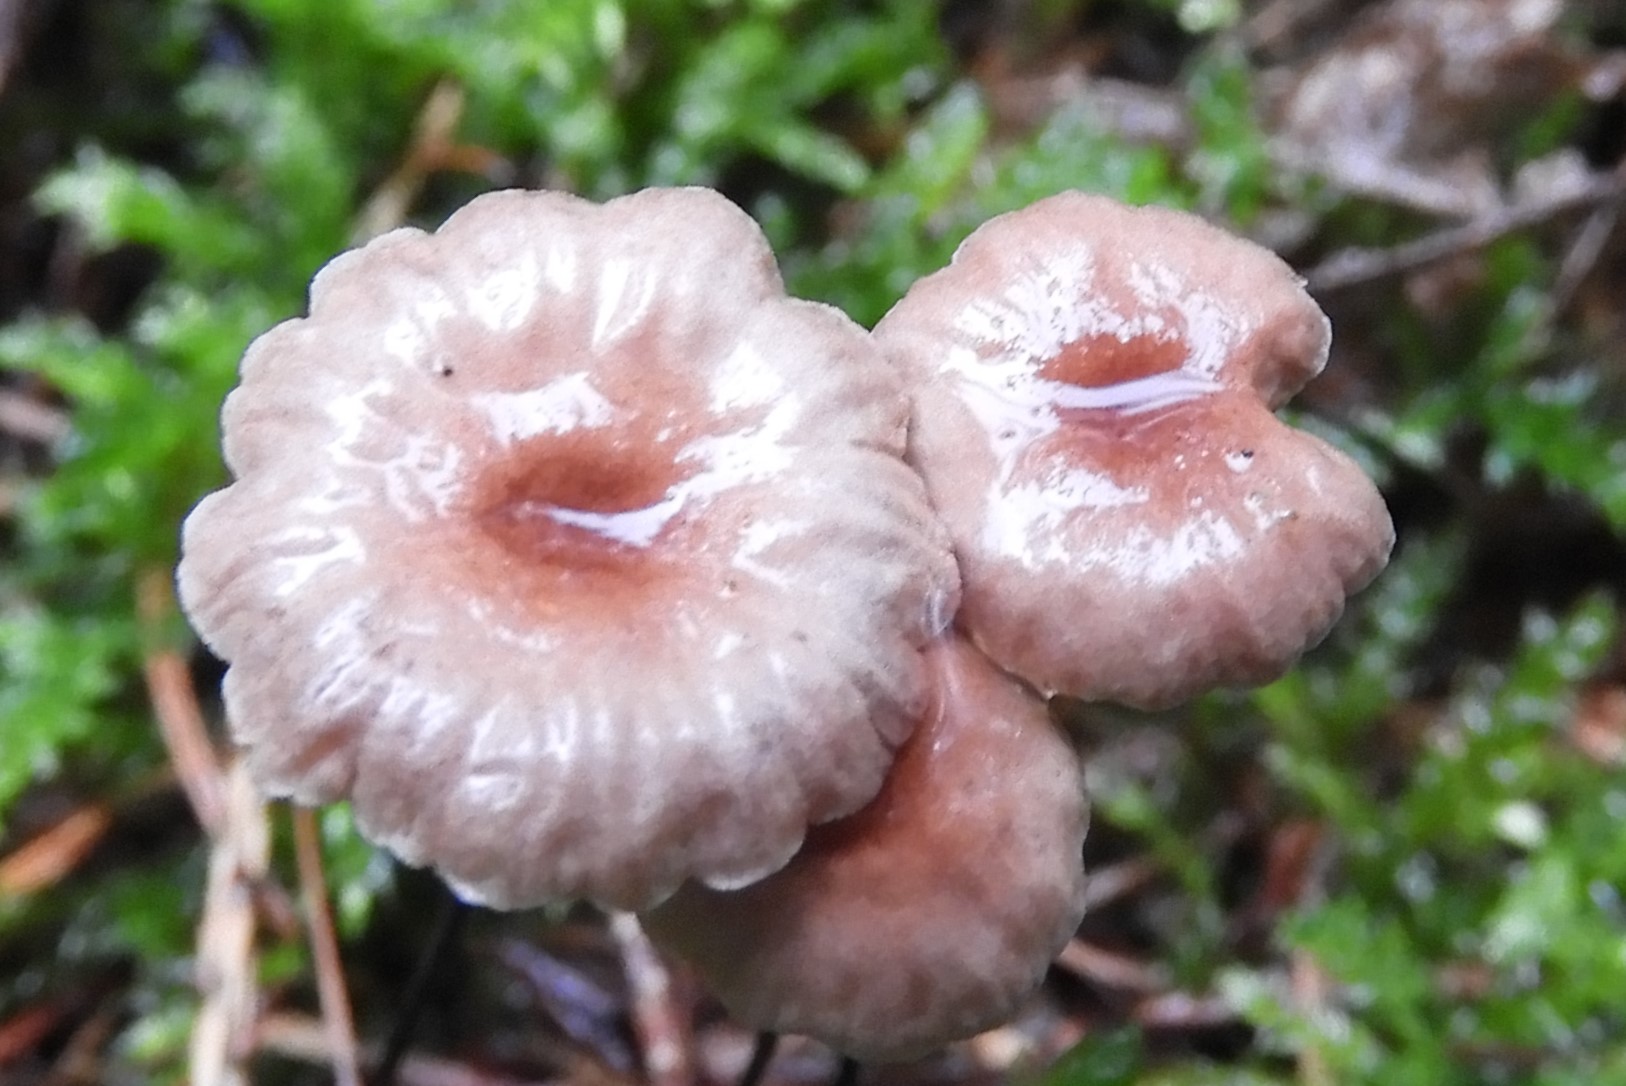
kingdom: Fungi
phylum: Basidiomycota
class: Agaricomycetes
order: Agaricales
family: Omphalotaceae
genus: Gymnopus
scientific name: Gymnopus androsaceus
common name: trådstokket fladhat
